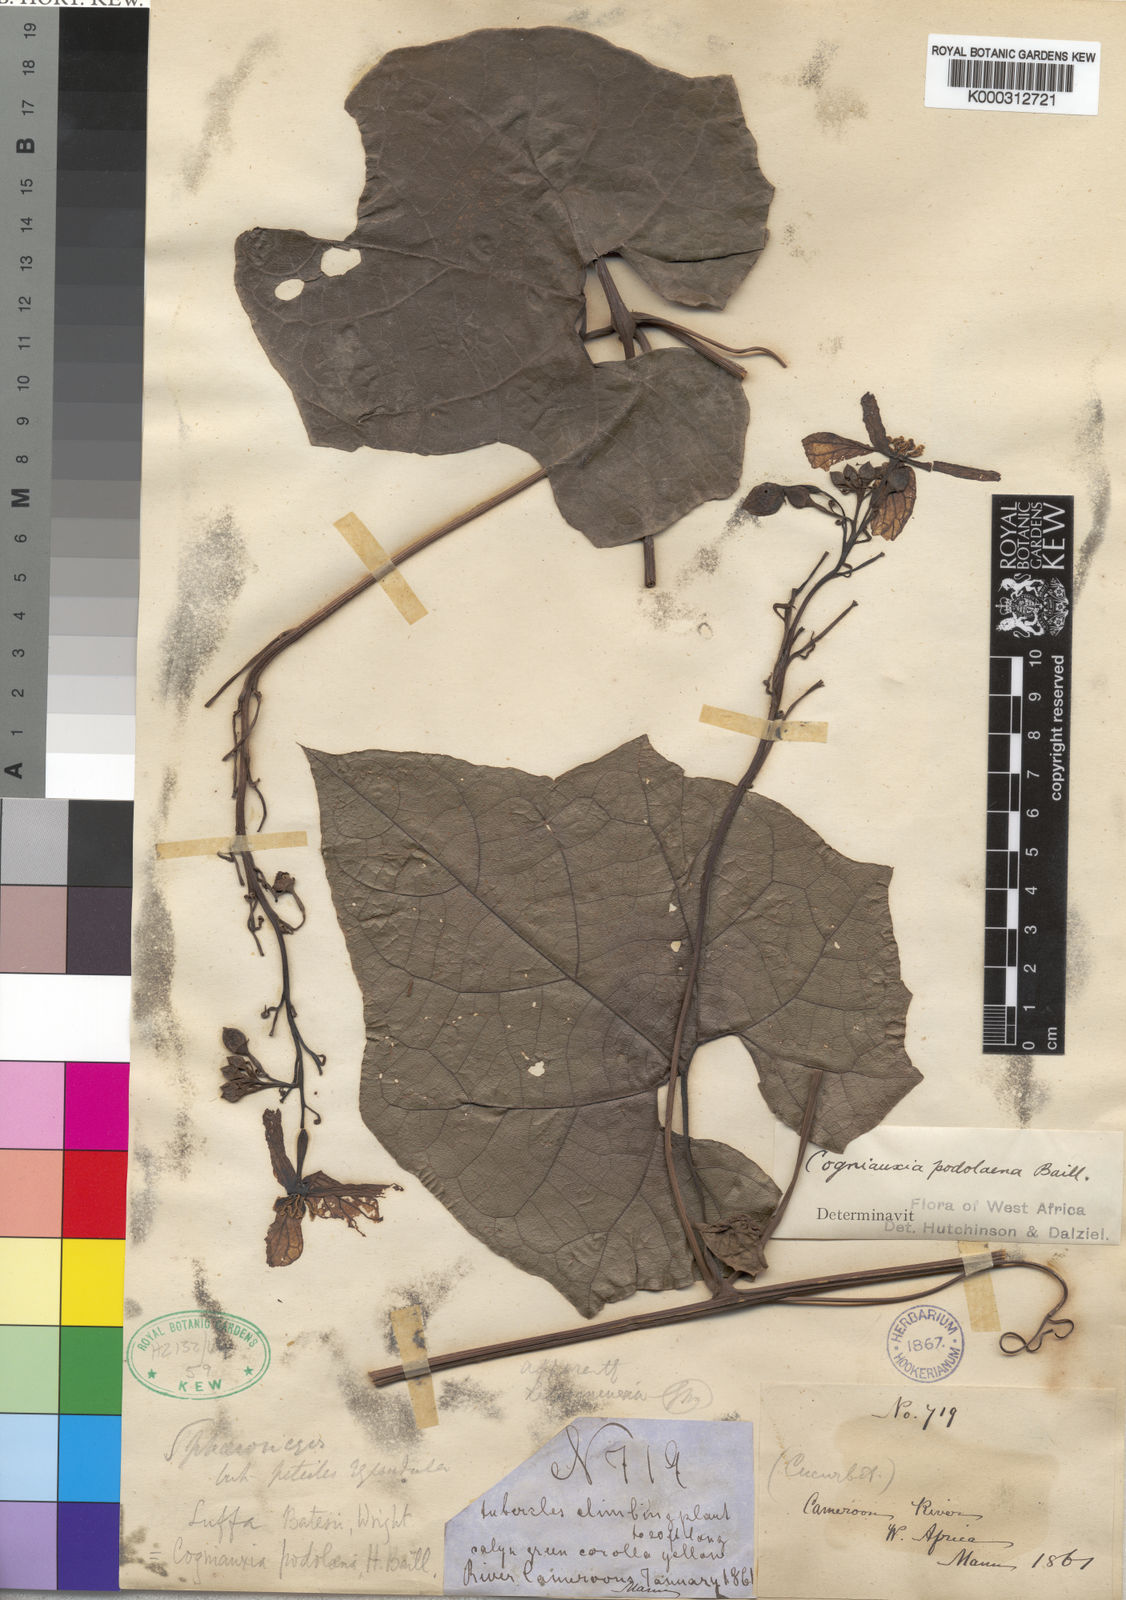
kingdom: Plantae
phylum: Tracheophyta
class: Magnoliopsida
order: Cucurbitales
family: Cucurbitaceae
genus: Cogniauxia
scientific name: Cogniauxia podolaena
